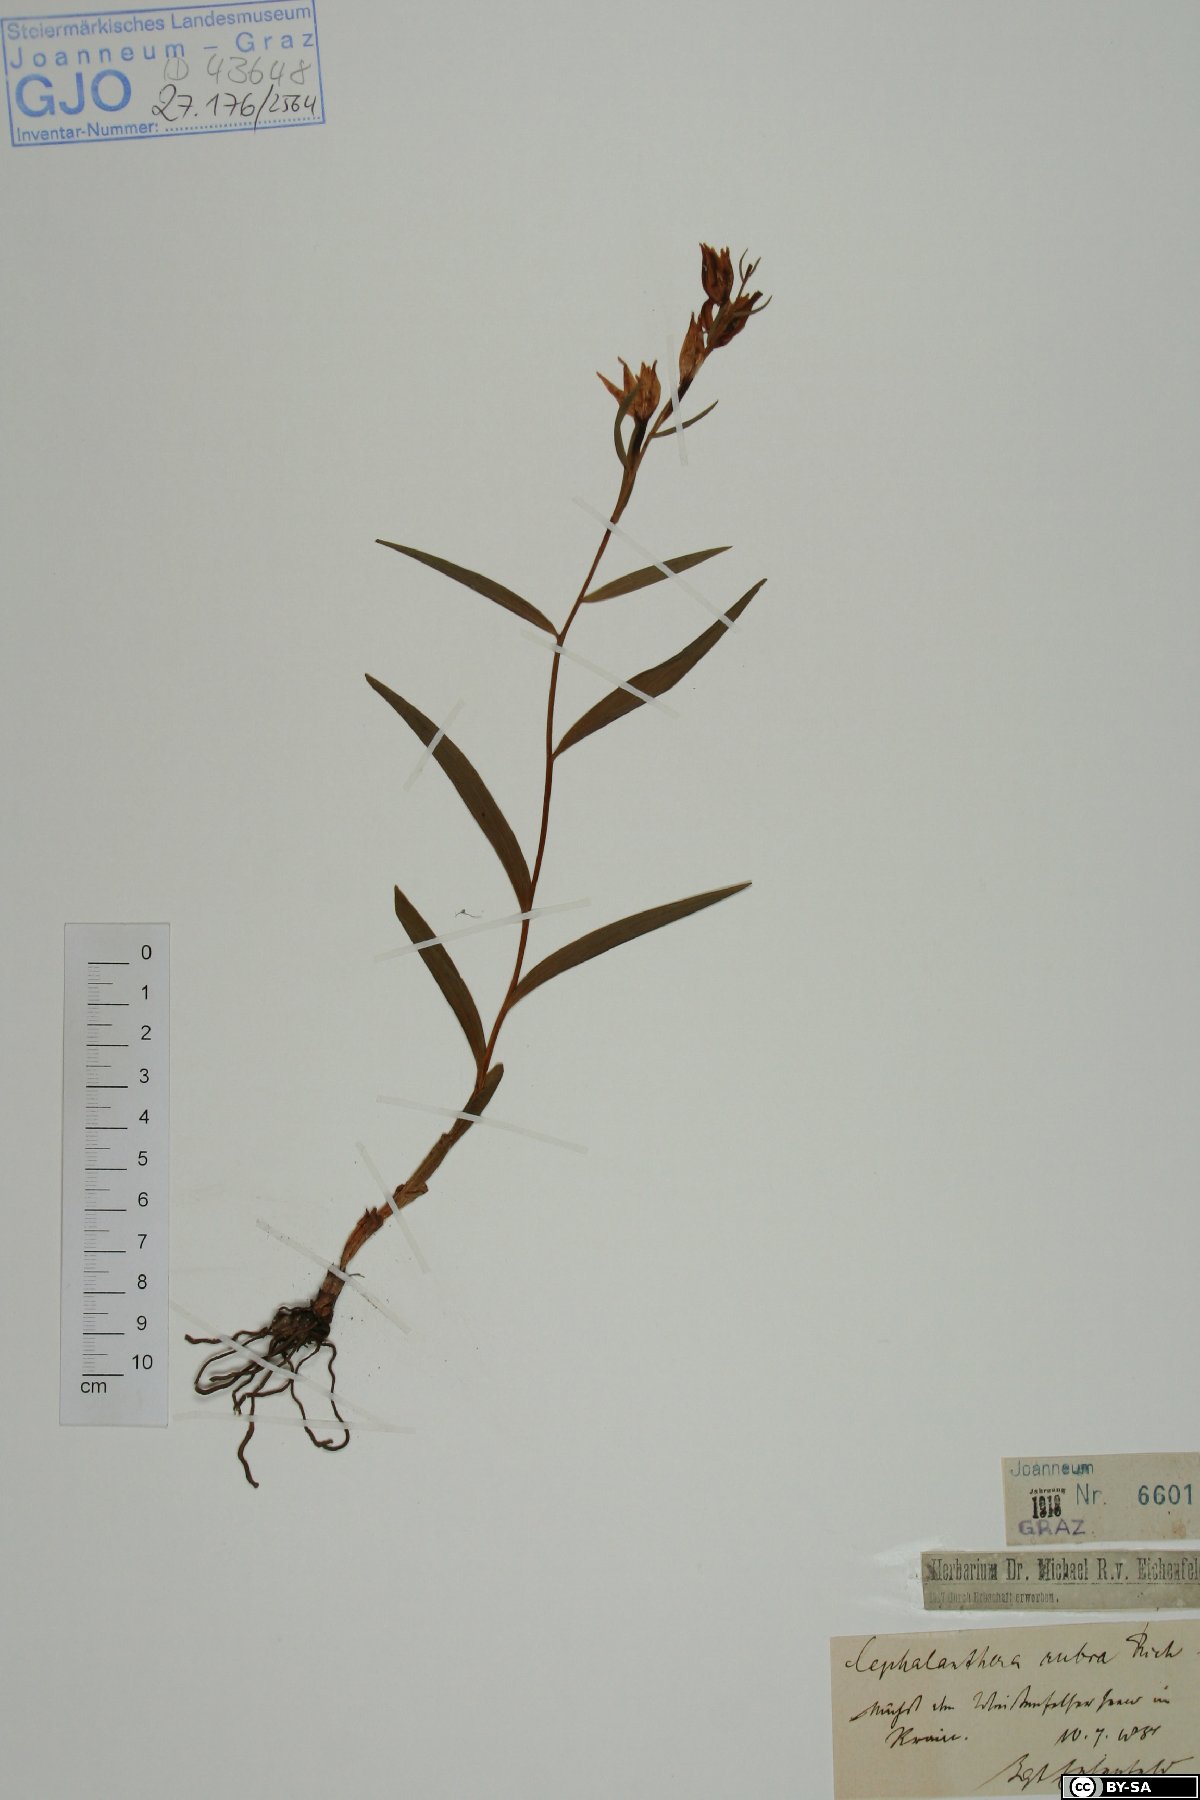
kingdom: Plantae
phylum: Tracheophyta
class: Liliopsida
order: Asparagales
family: Orchidaceae
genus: Cephalanthera
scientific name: Cephalanthera rubra
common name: Red helleborine
